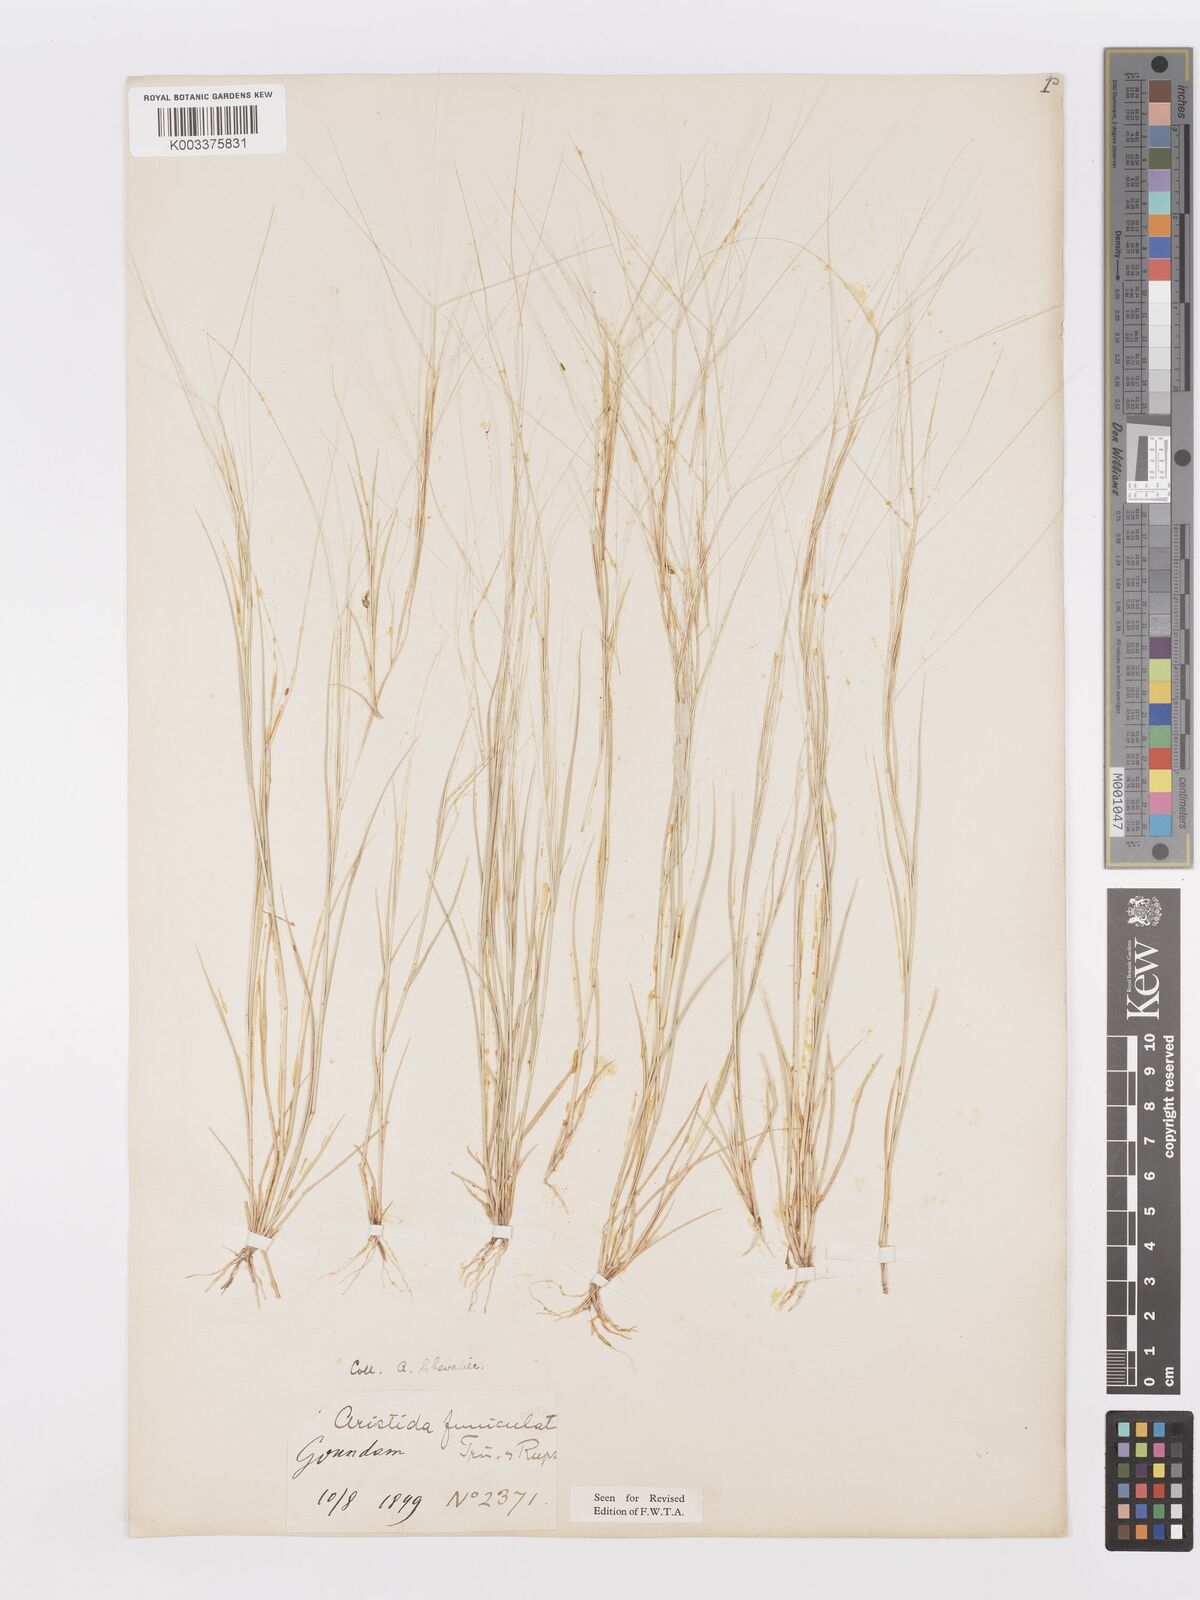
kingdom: Plantae
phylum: Tracheophyta
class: Liliopsida
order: Poales
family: Poaceae
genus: Aristida
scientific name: Aristida funiculata
